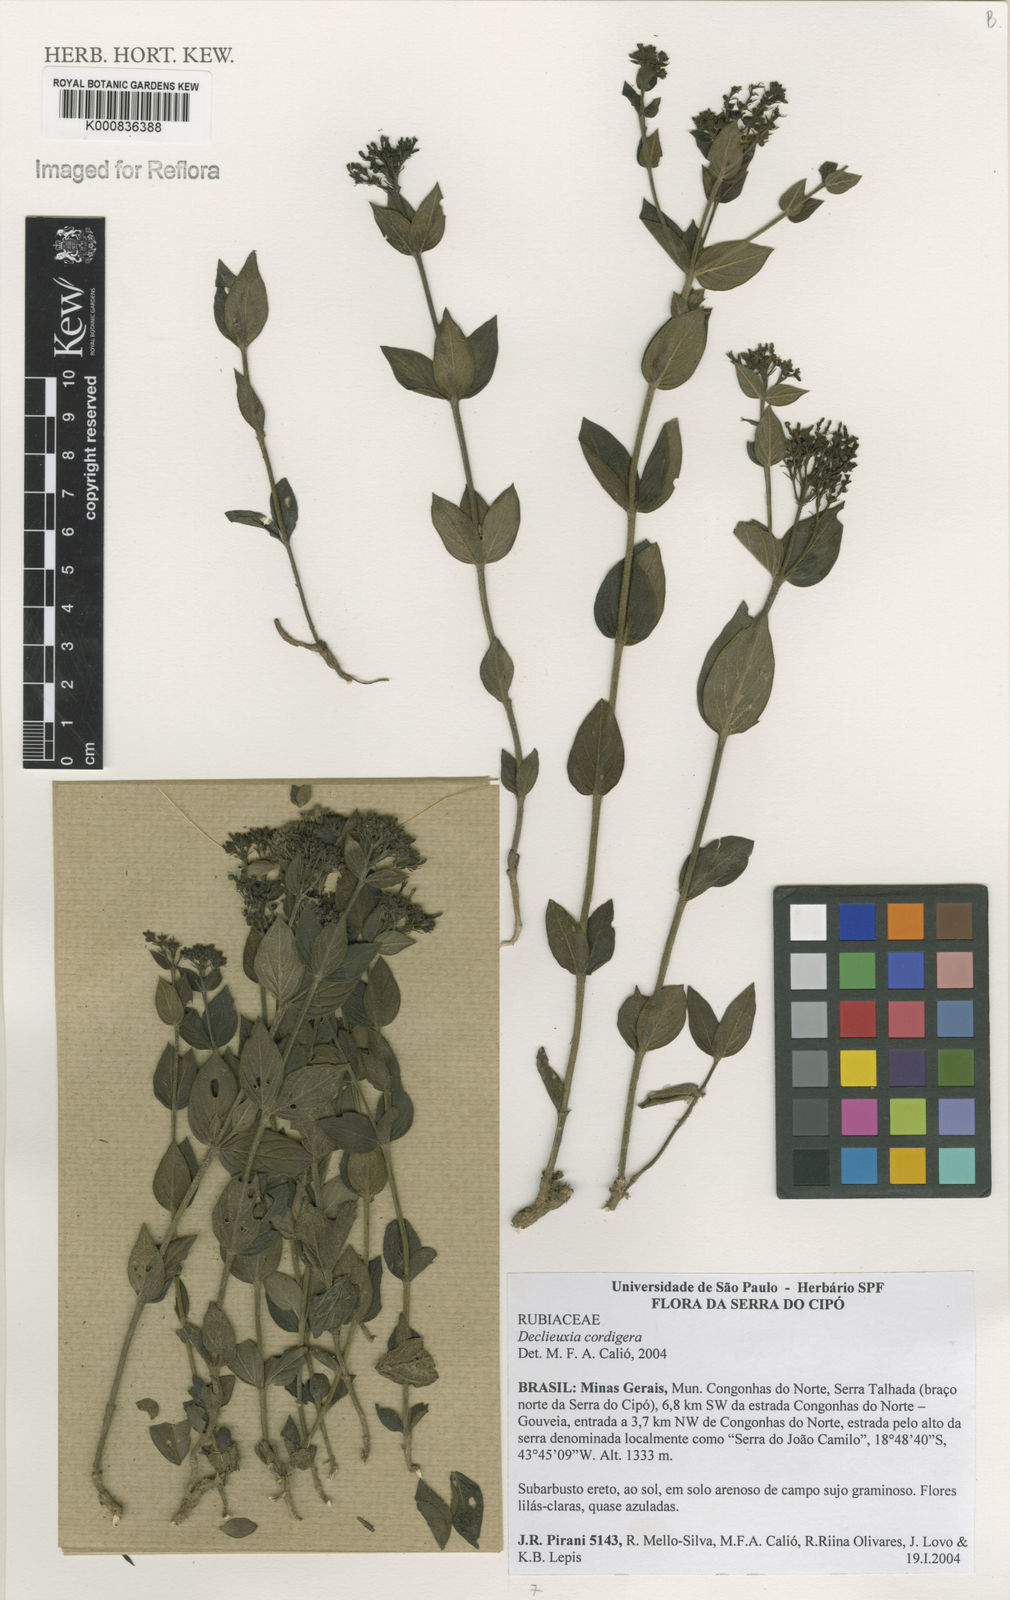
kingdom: Plantae
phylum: Tracheophyta
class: Magnoliopsida
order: Gentianales
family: Rubiaceae
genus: Declieuxia
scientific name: Declieuxia
